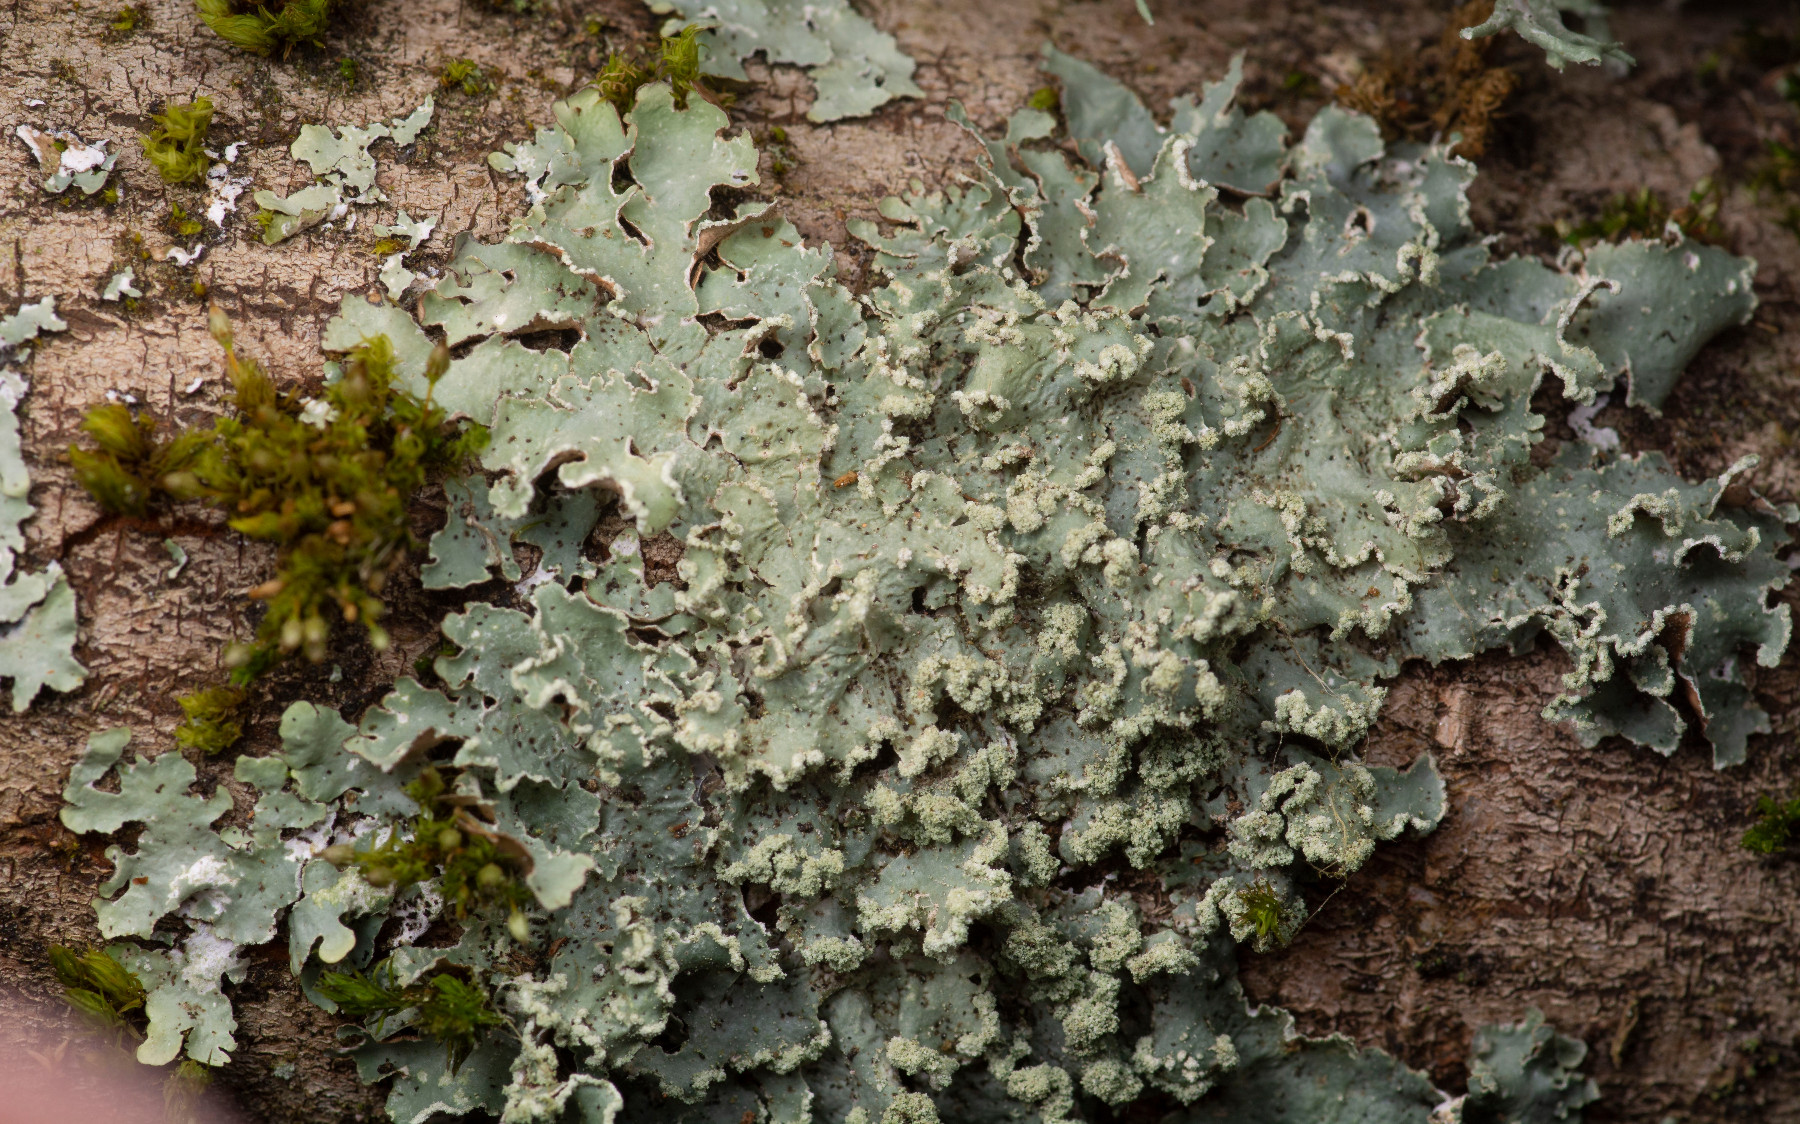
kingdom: Fungi
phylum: Ascomycota
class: Lecanoromycetes
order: Lecanorales
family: Parmeliaceae
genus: Punctelia
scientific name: Punctelia jeckeri
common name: randstøvet skållav
